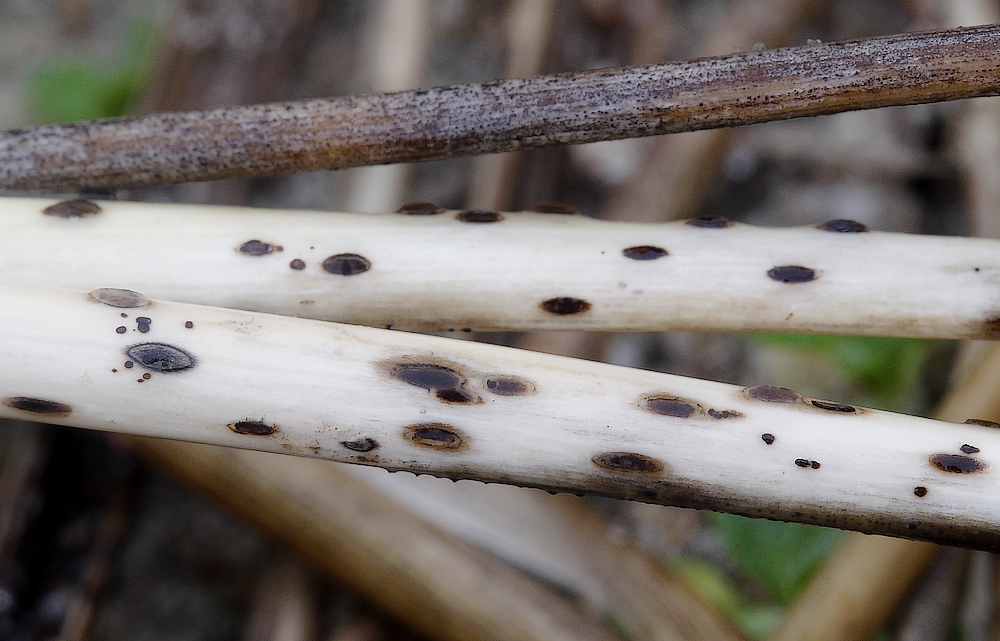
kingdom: Fungi
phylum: Ascomycota
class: Leotiomycetes
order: Helotiales
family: Dermateaceae
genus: Hysterostegiella
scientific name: Hysterostegiella valvata
